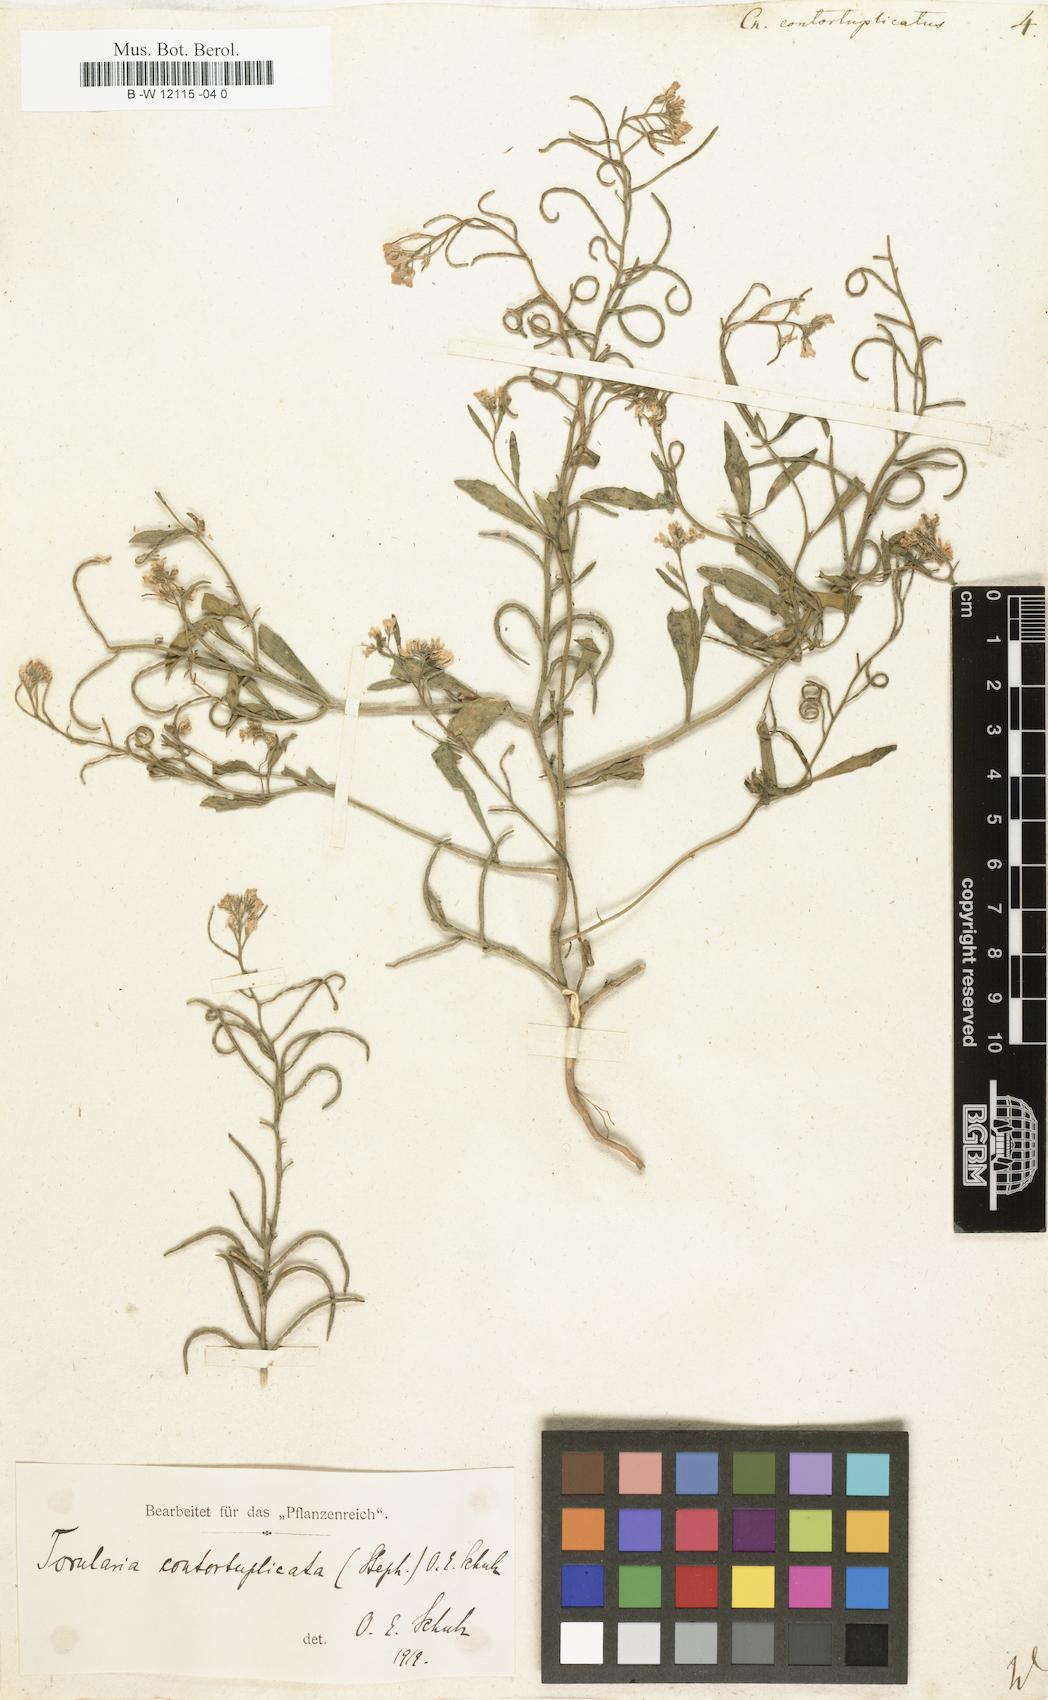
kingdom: Plantae
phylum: Tracheophyta
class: Magnoliopsida
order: Brassicales
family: Brassicaceae
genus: Neotorularia
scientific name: Neotorularia contortuplicata
